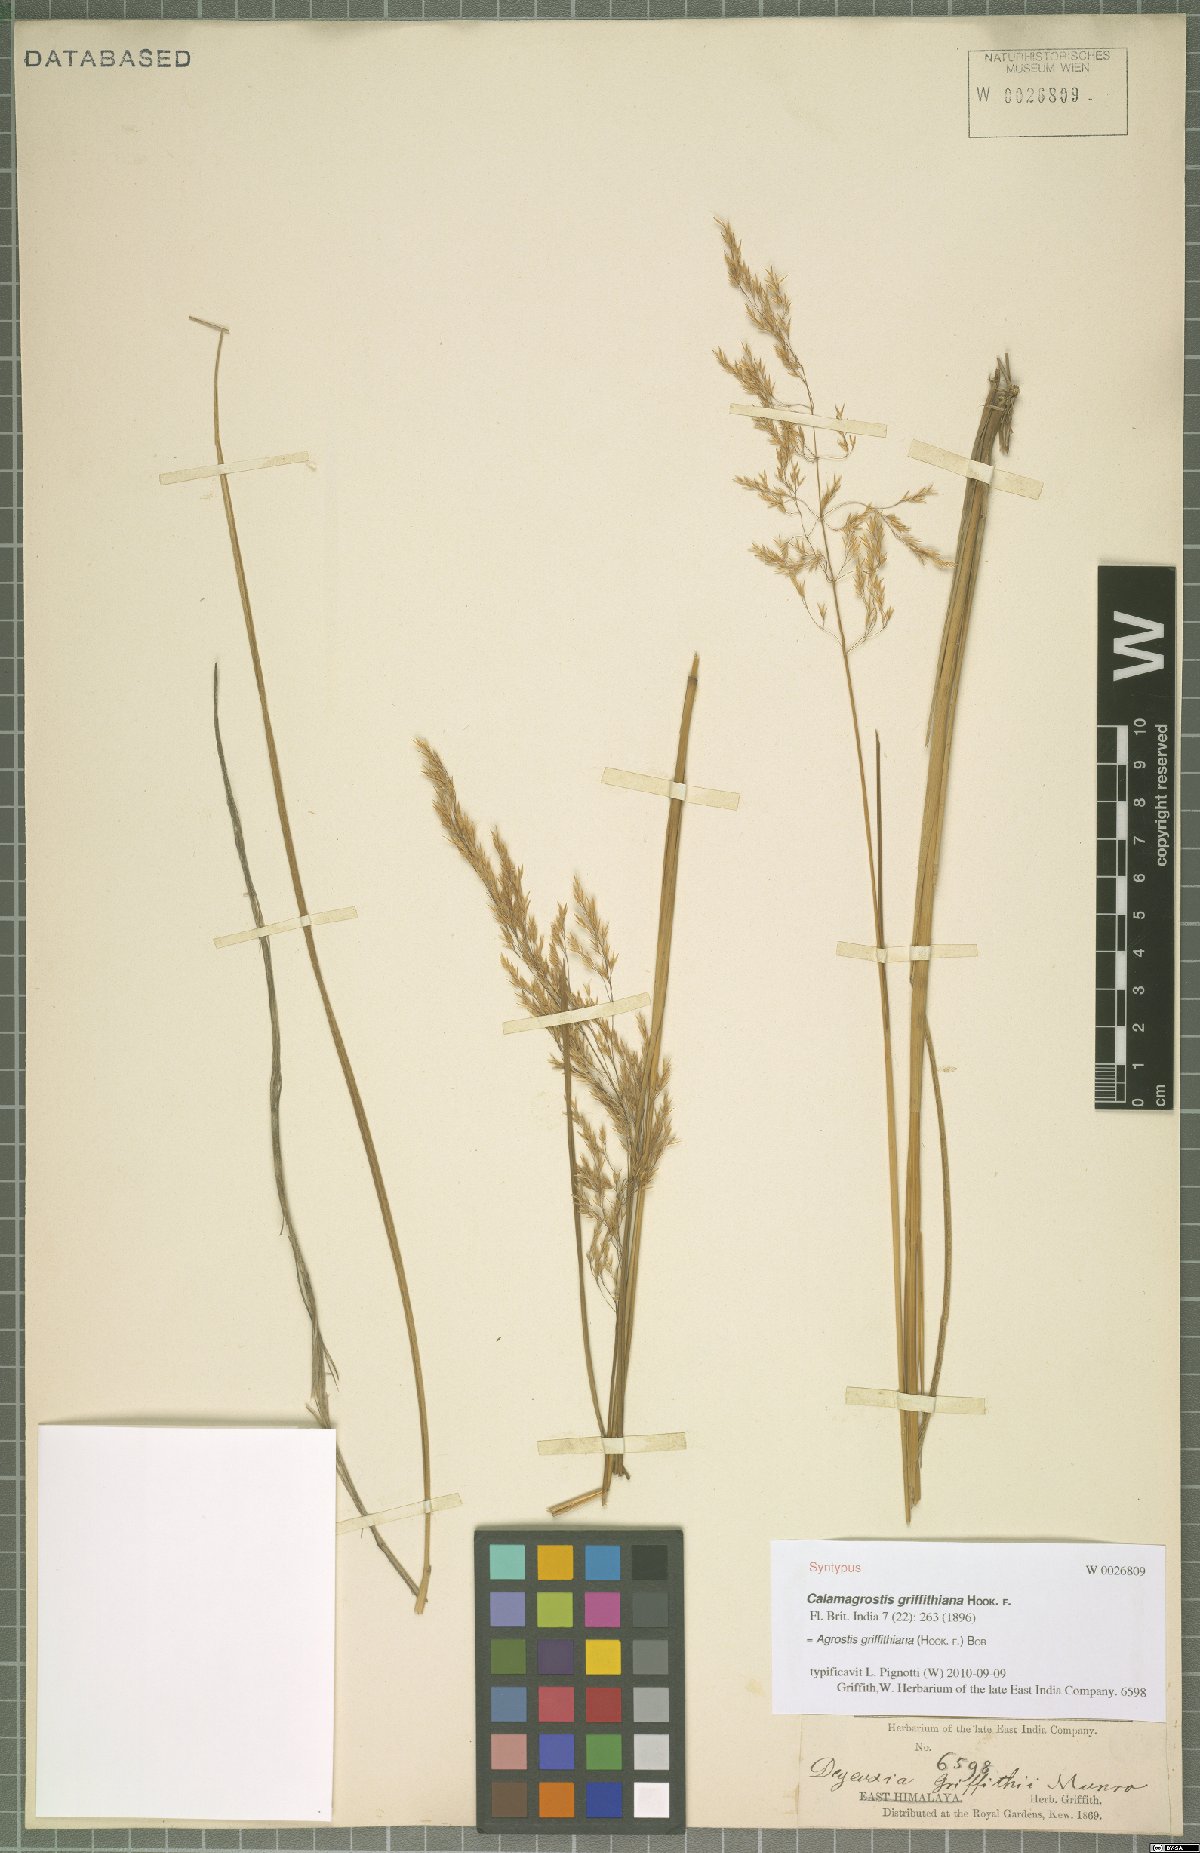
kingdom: Plantae
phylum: Tracheophyta
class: Liliopsida
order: Poales
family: Poaceae
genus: Agrostis
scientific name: Agrostis griffithiana
